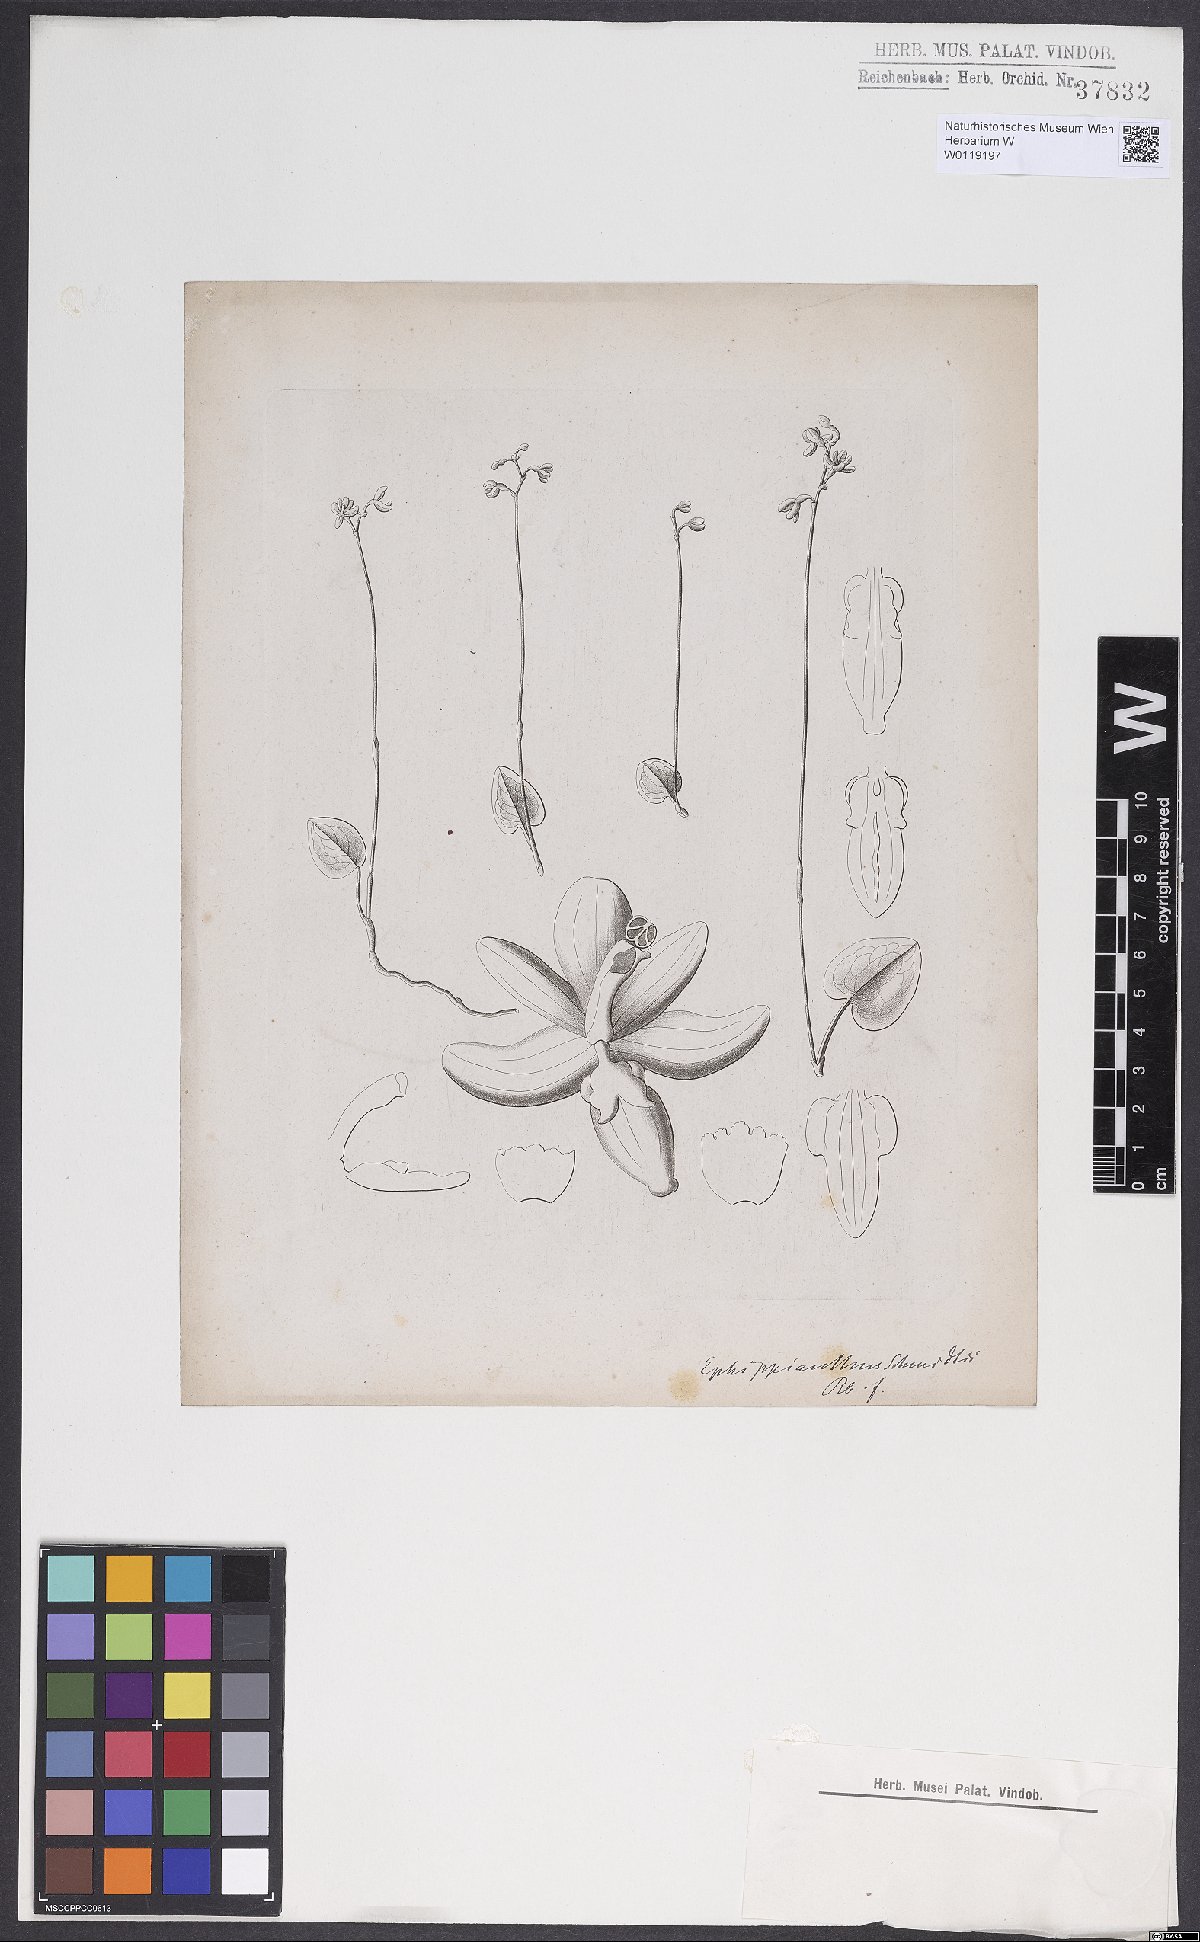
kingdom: Plantae
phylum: Tracheophyta
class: Liliopsida
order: Asparagales
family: Orchidaceae
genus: Ephippianthus
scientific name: Ephippianthus sachalinensis
